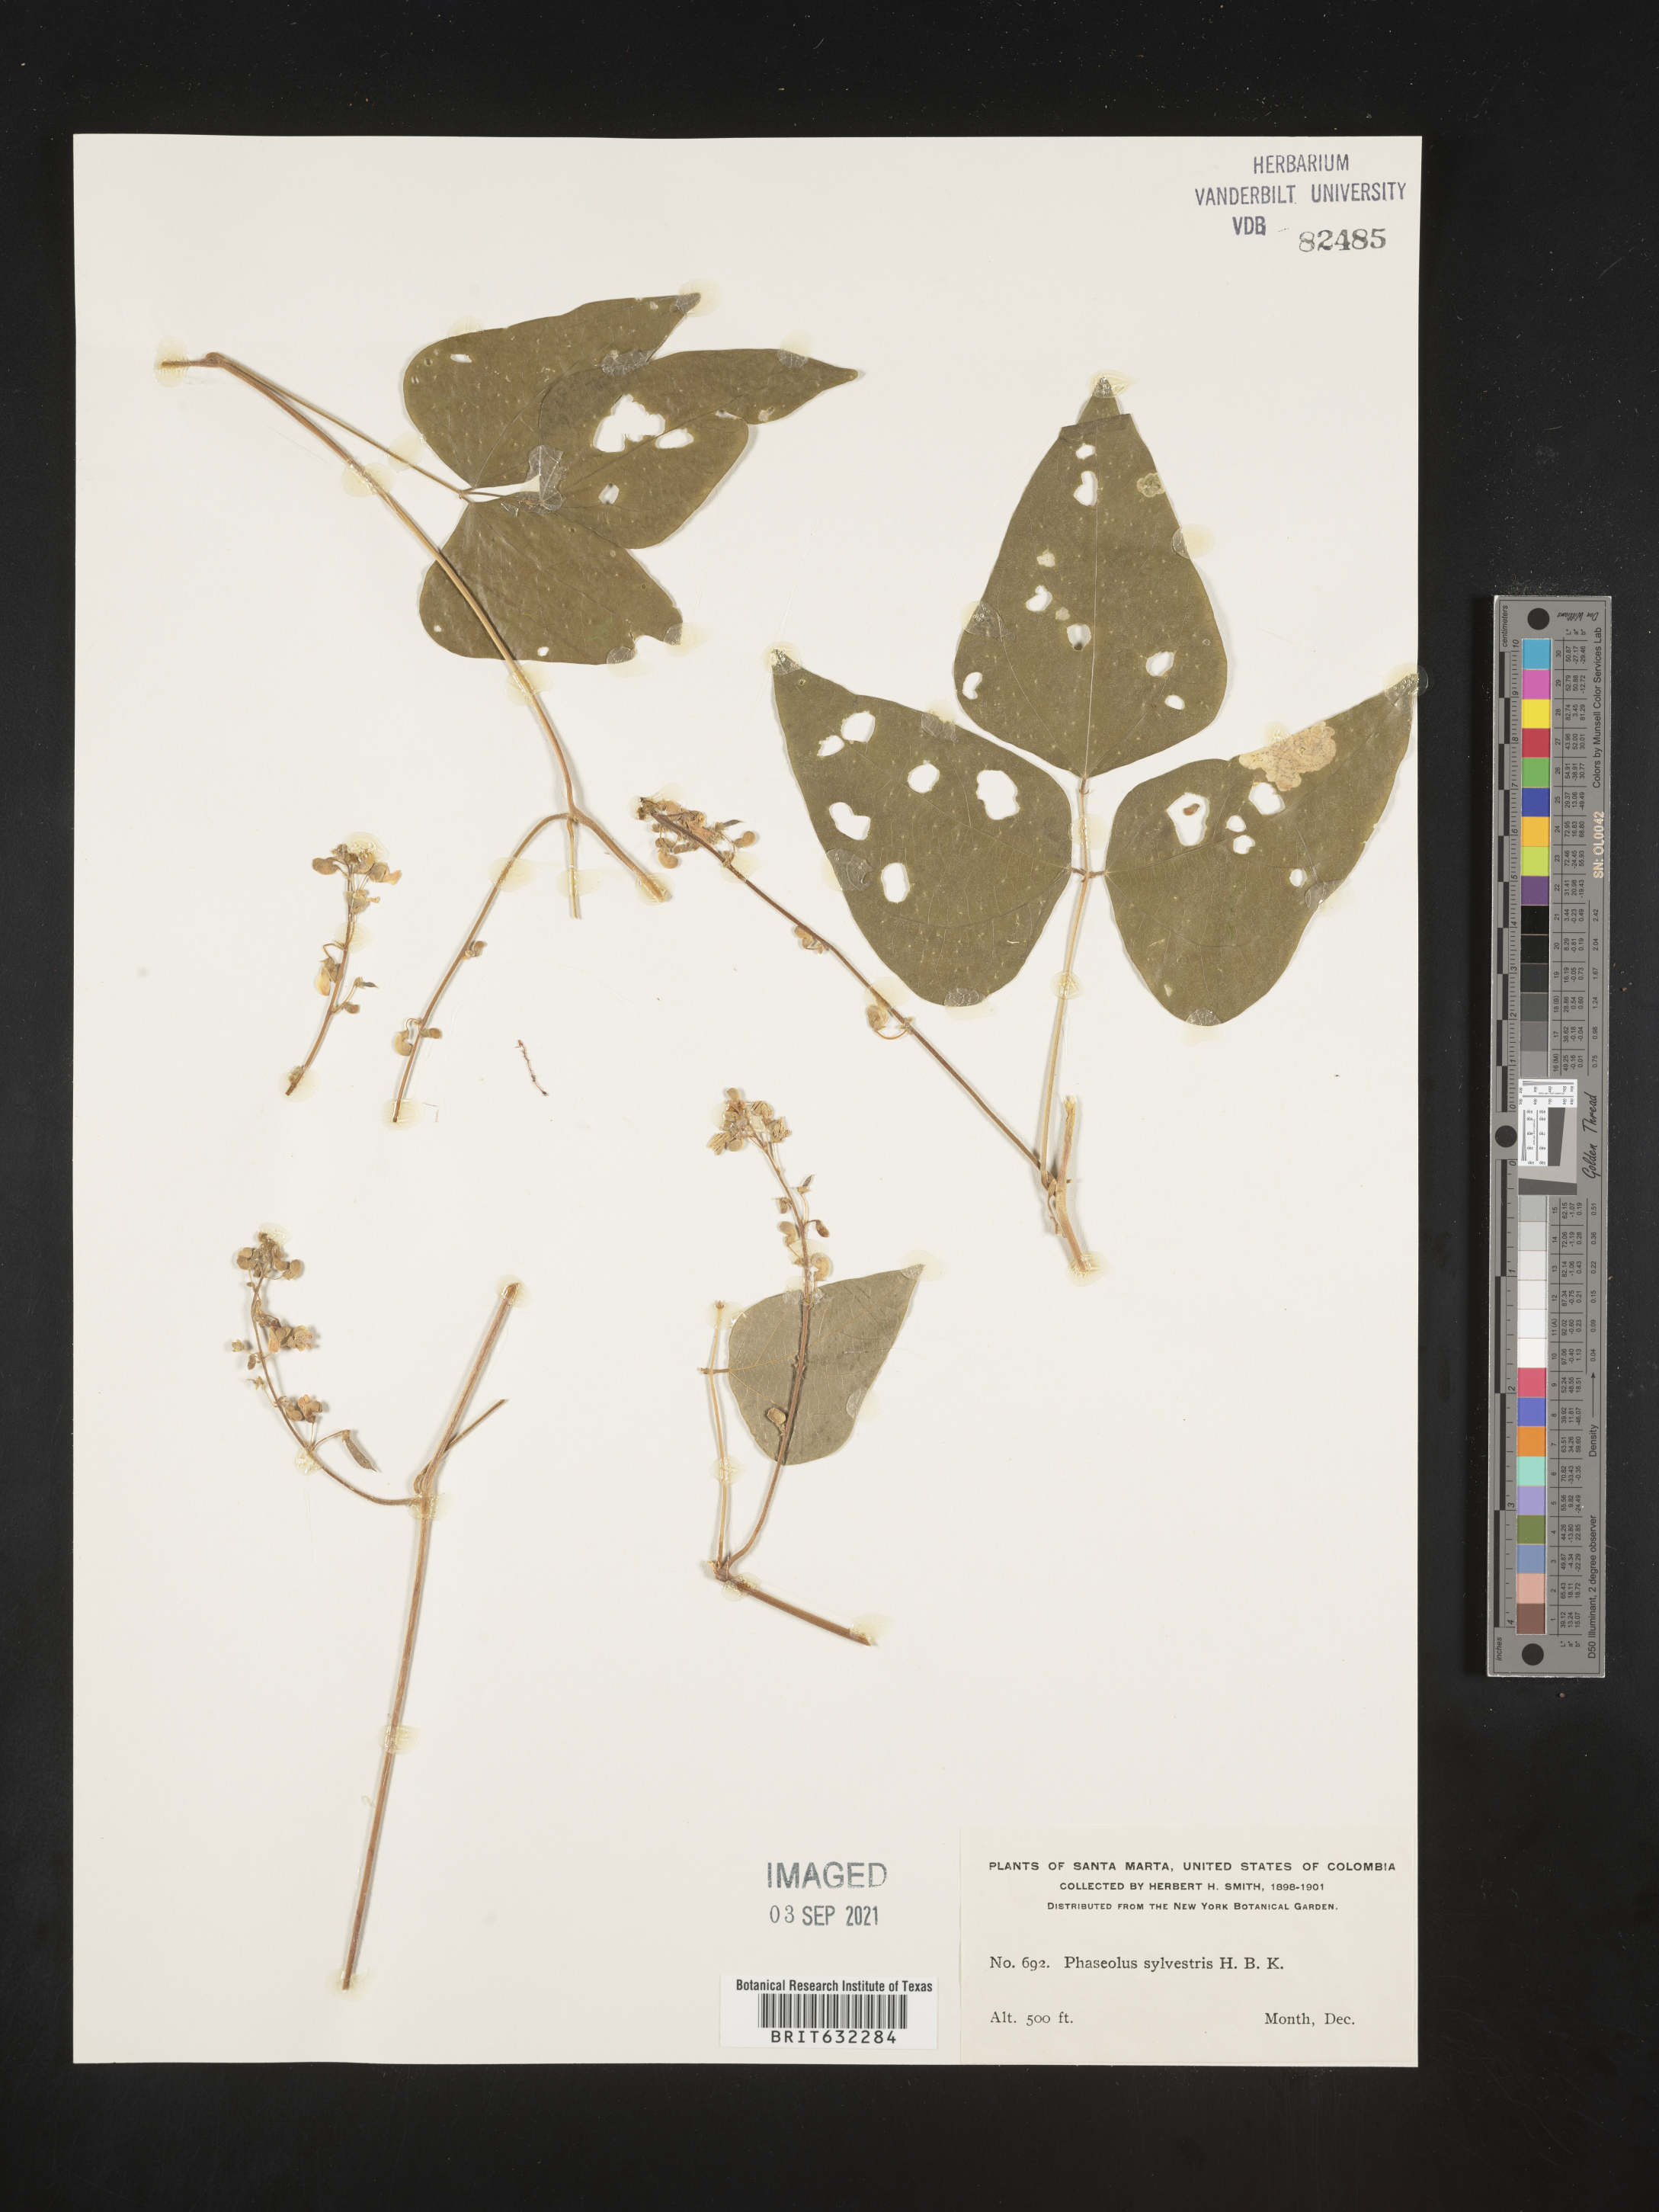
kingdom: Plantae
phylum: Tracheophyta
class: Magnoliopsida
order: Fabales
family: Fabaceae
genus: Phaseolus
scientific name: Phaseolus
